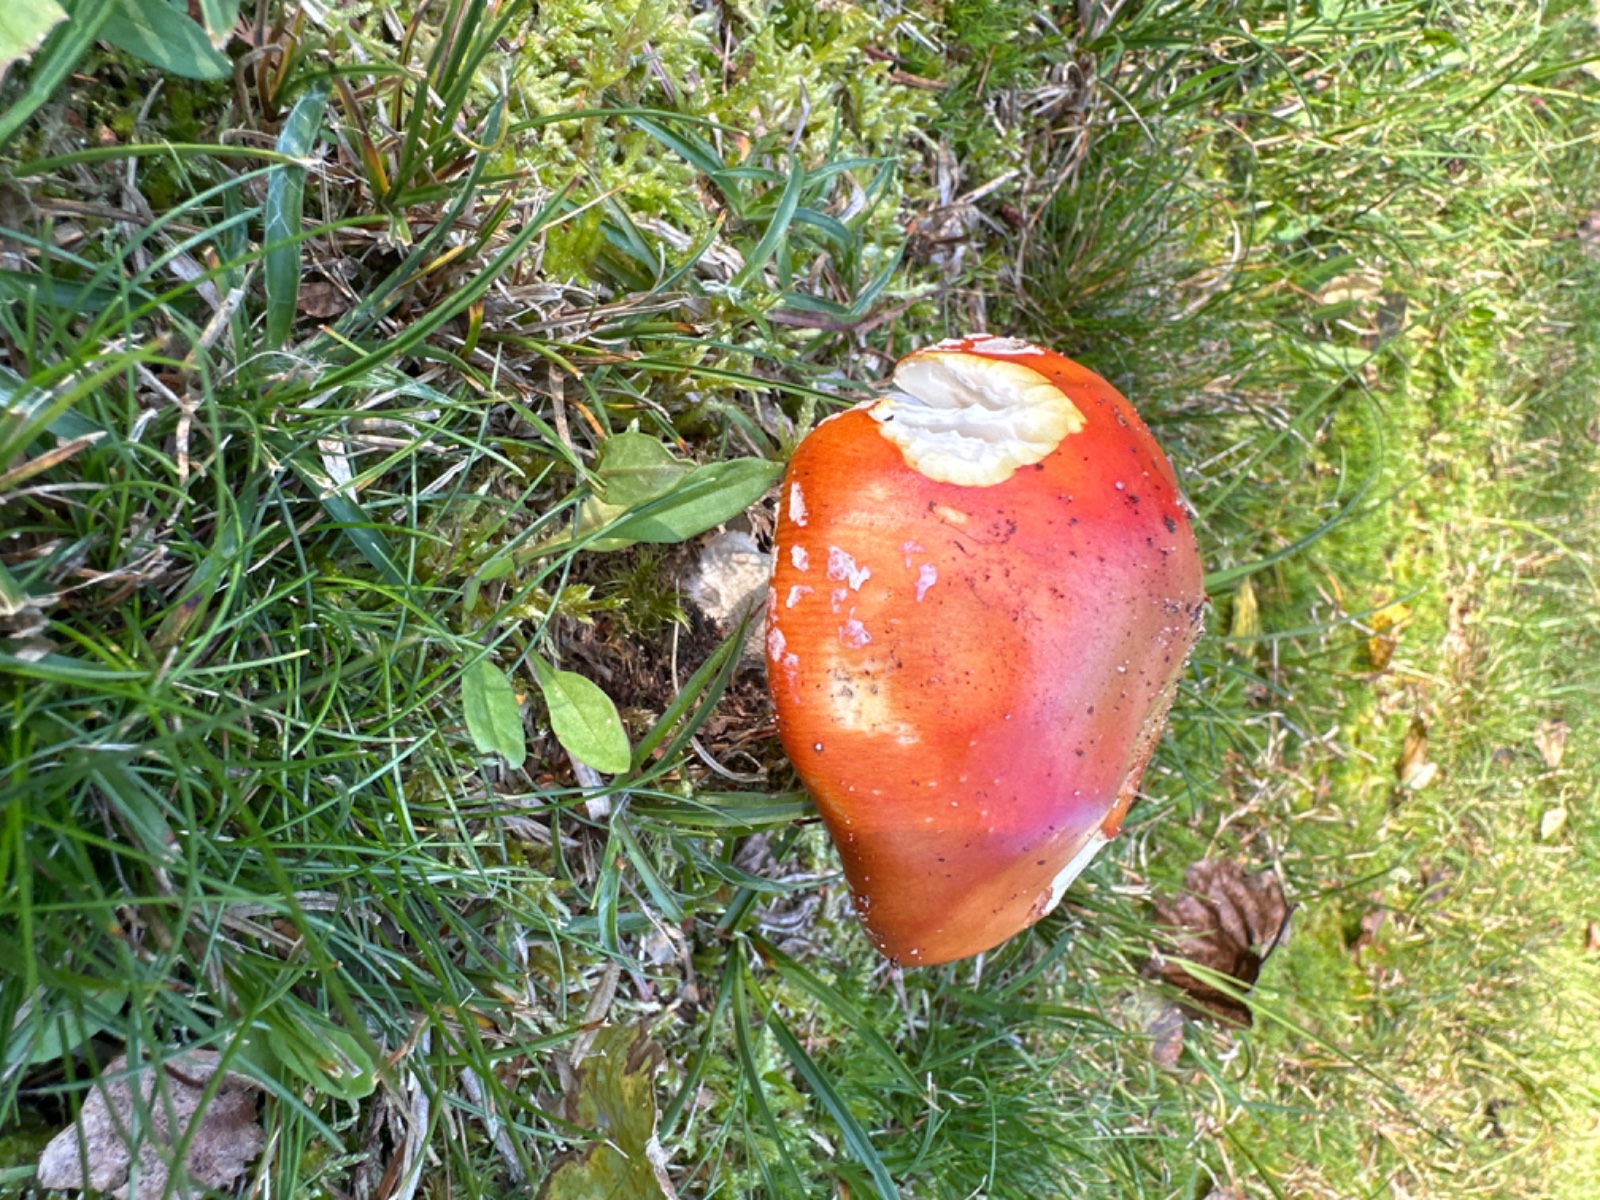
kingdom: Fungi
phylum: Basidiomycota
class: Agaricomycetes
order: Agaricales
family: Amanitaceae
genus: Amanita
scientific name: Amanita muscaria
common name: rød fluesvamp
